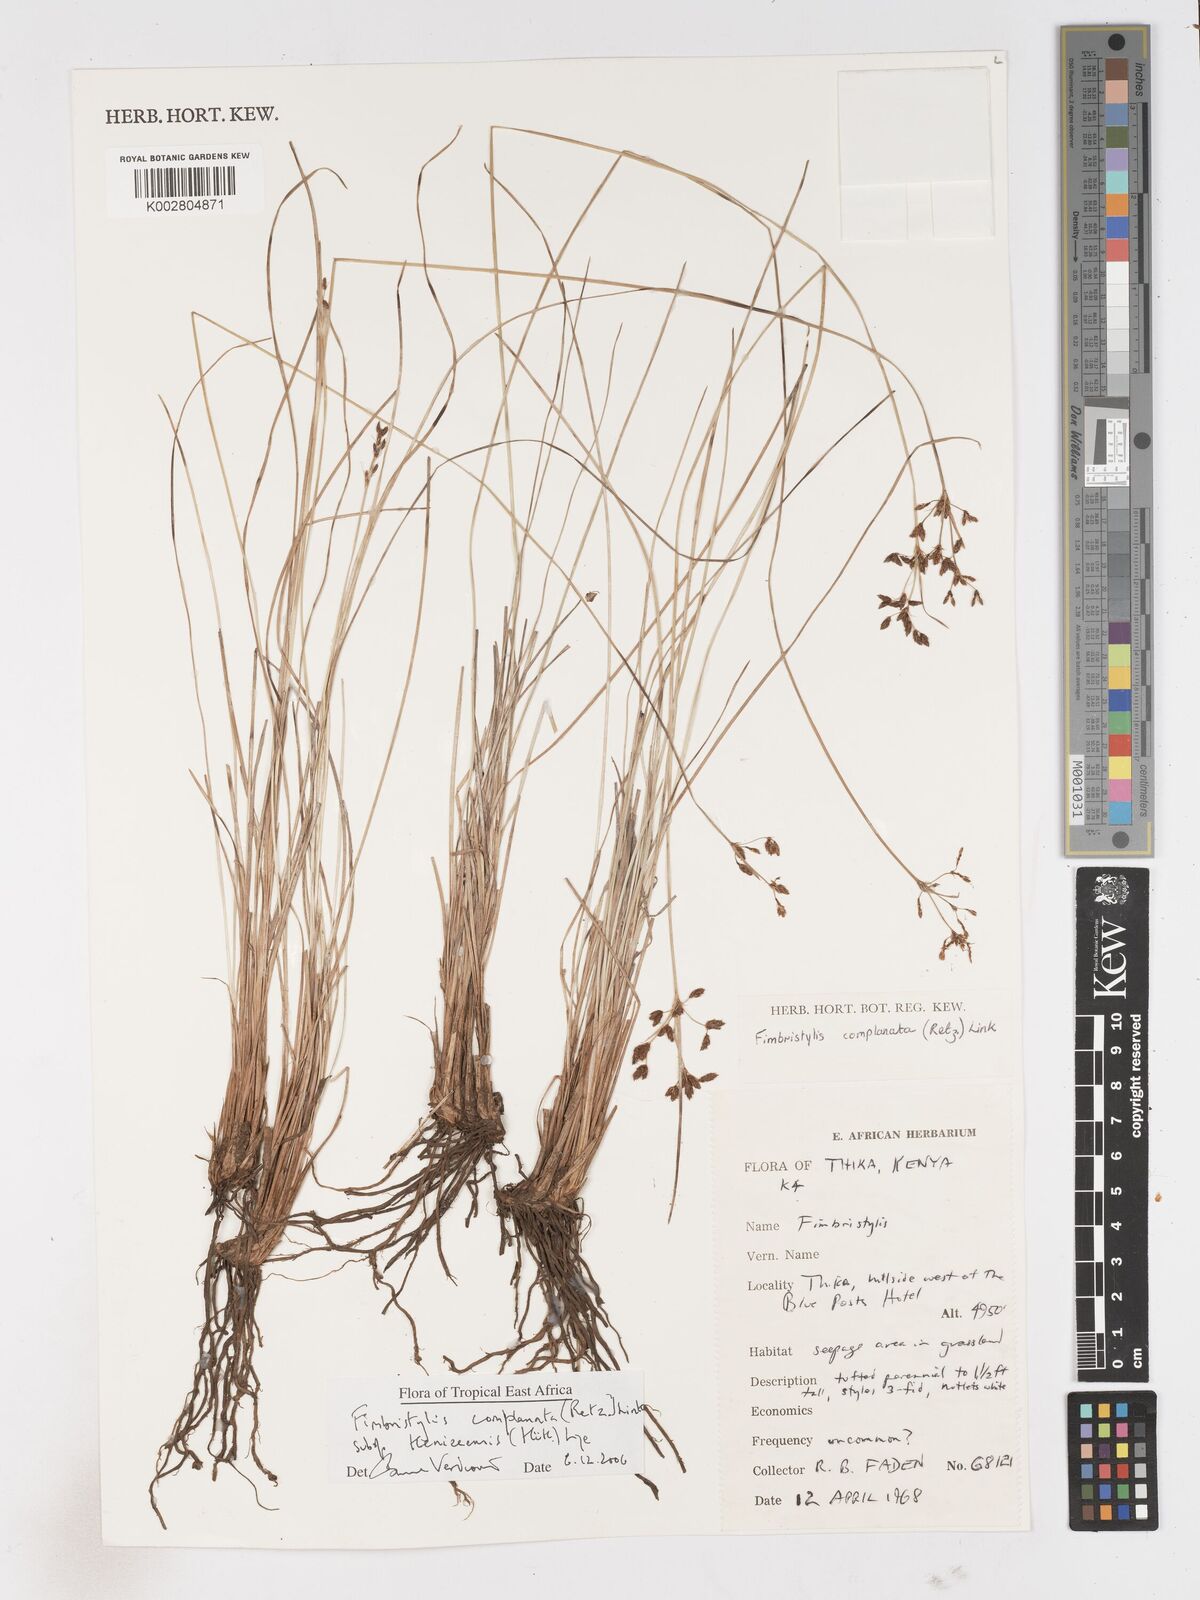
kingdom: Plantae
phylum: Tracheophyta
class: Liliopsida
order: Poales
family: Cyperaceae
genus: Fimbristylis
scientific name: Fimbristylis complanata
